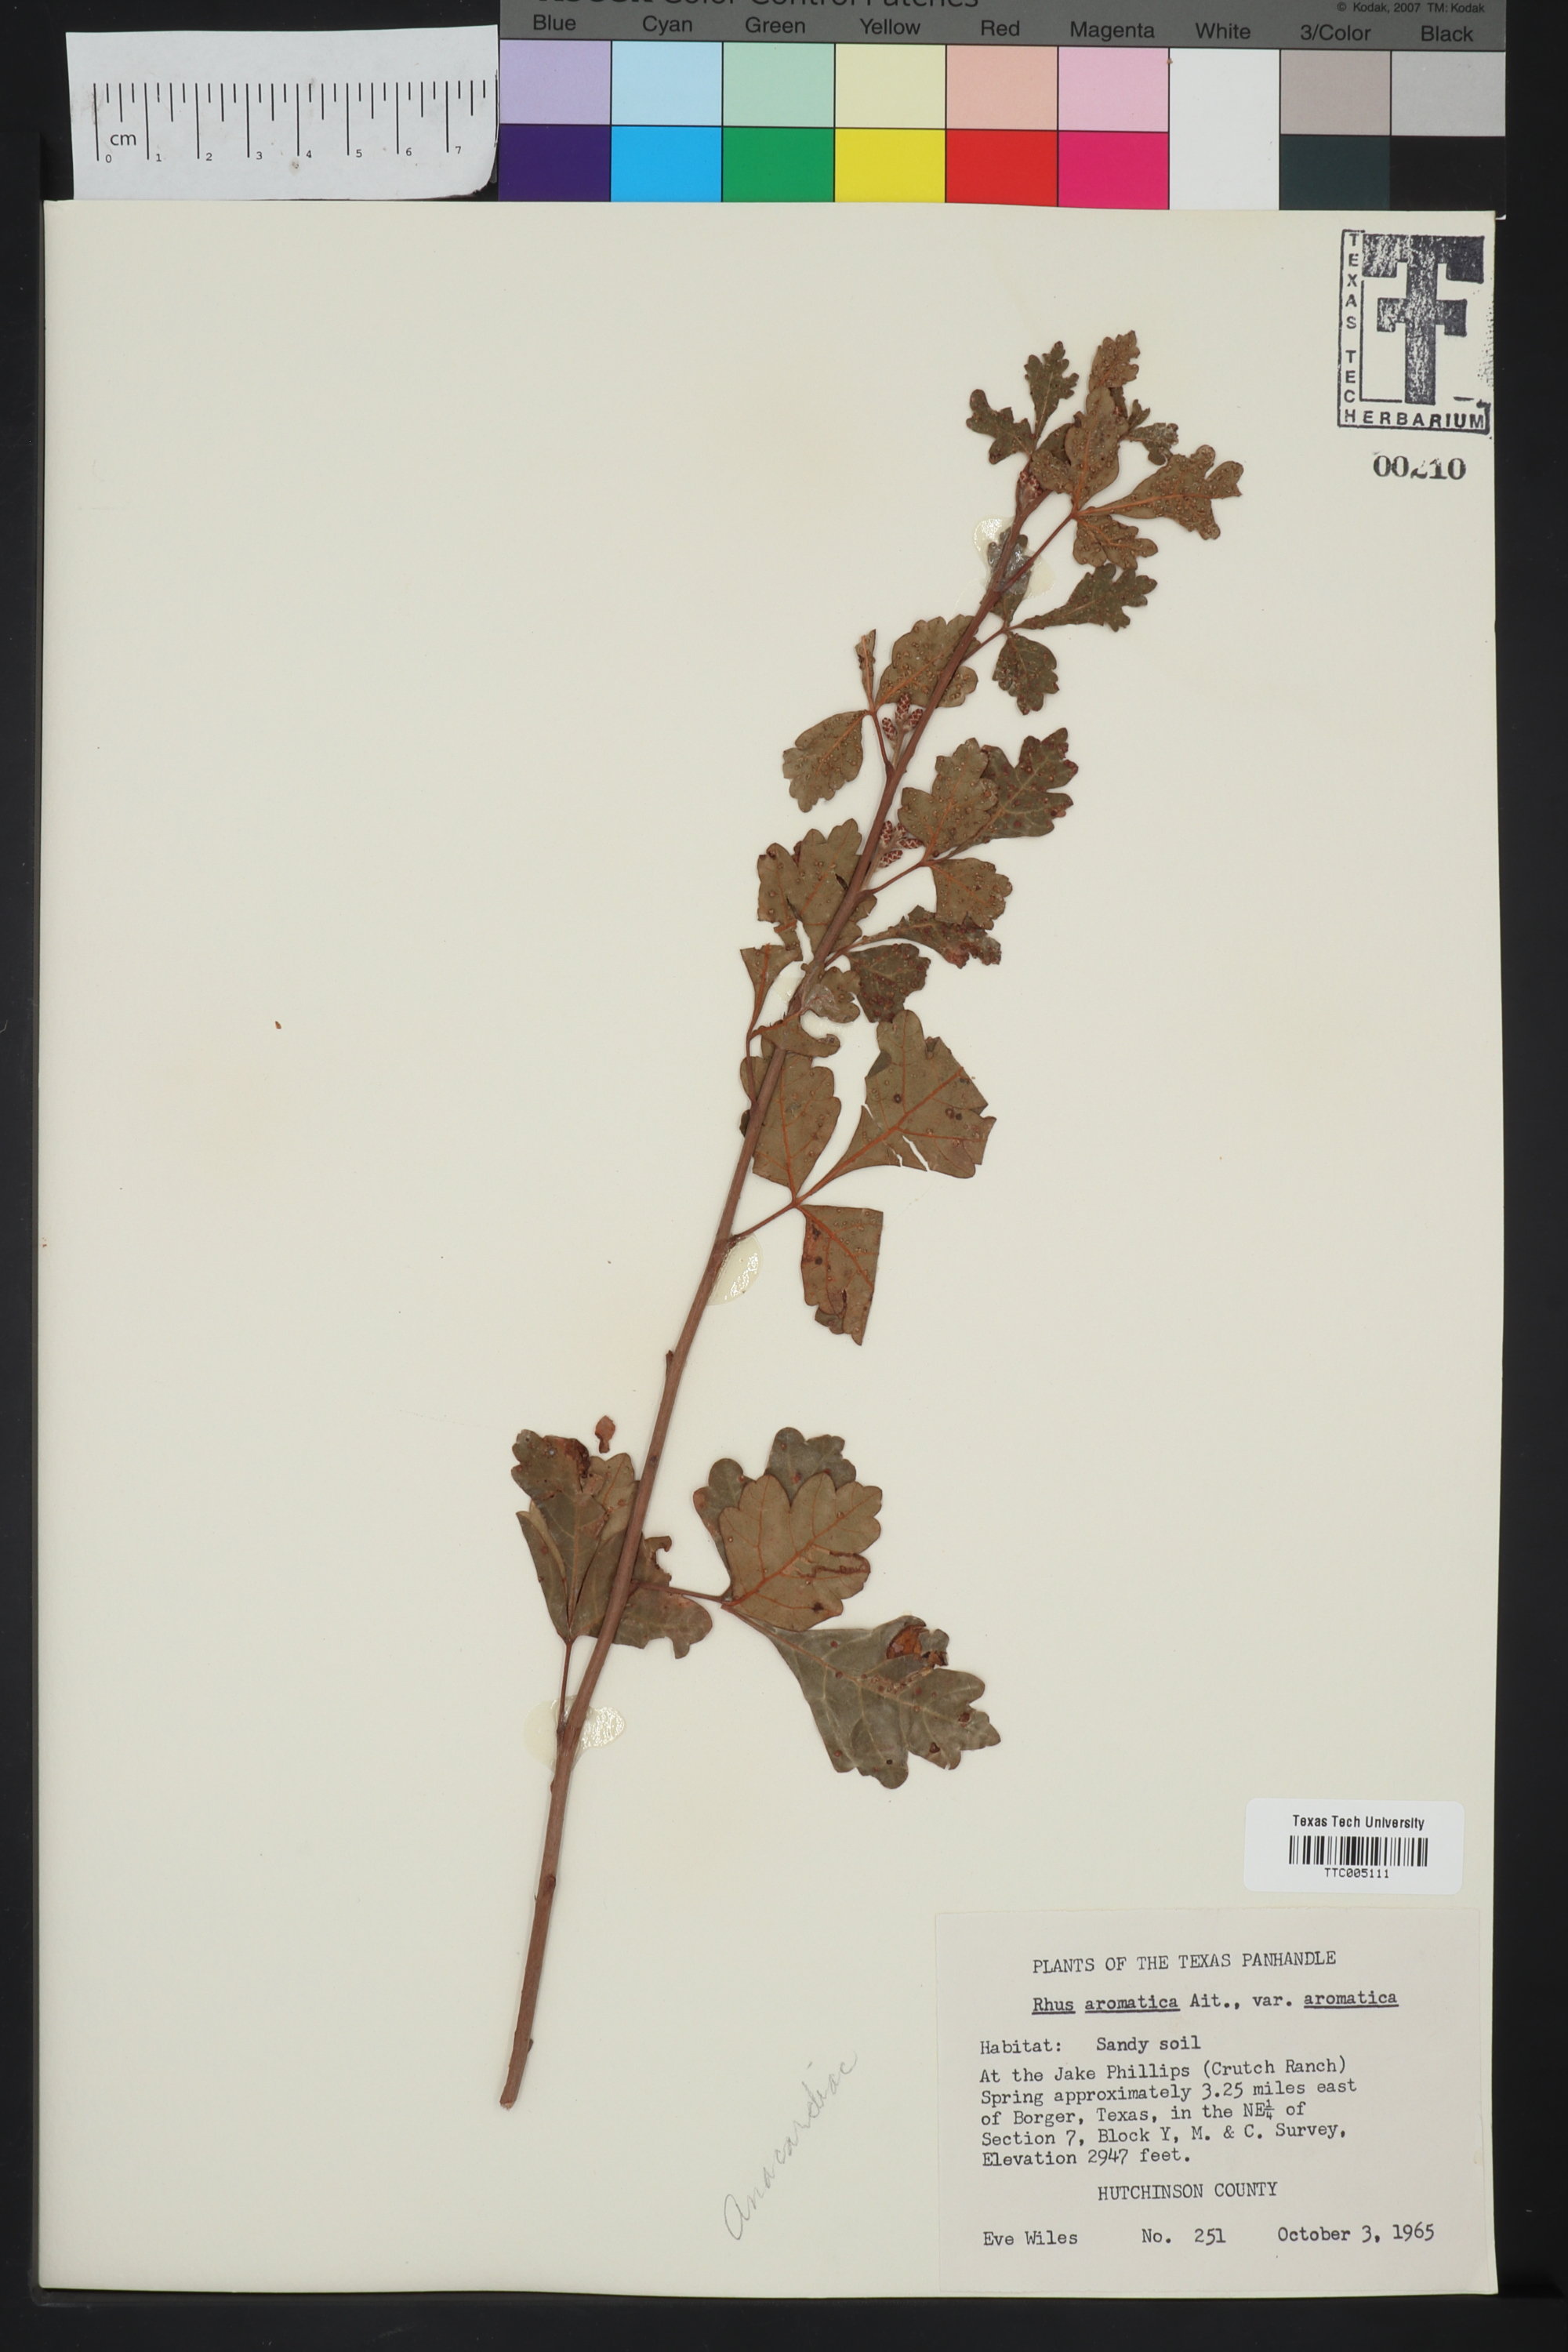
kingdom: Plantae
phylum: Tracheophyta
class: Magnoliopsida
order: Sapindales
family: Anacardiaceae
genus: Rhus
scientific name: Rhus aromatica
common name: Aromatic sumac
